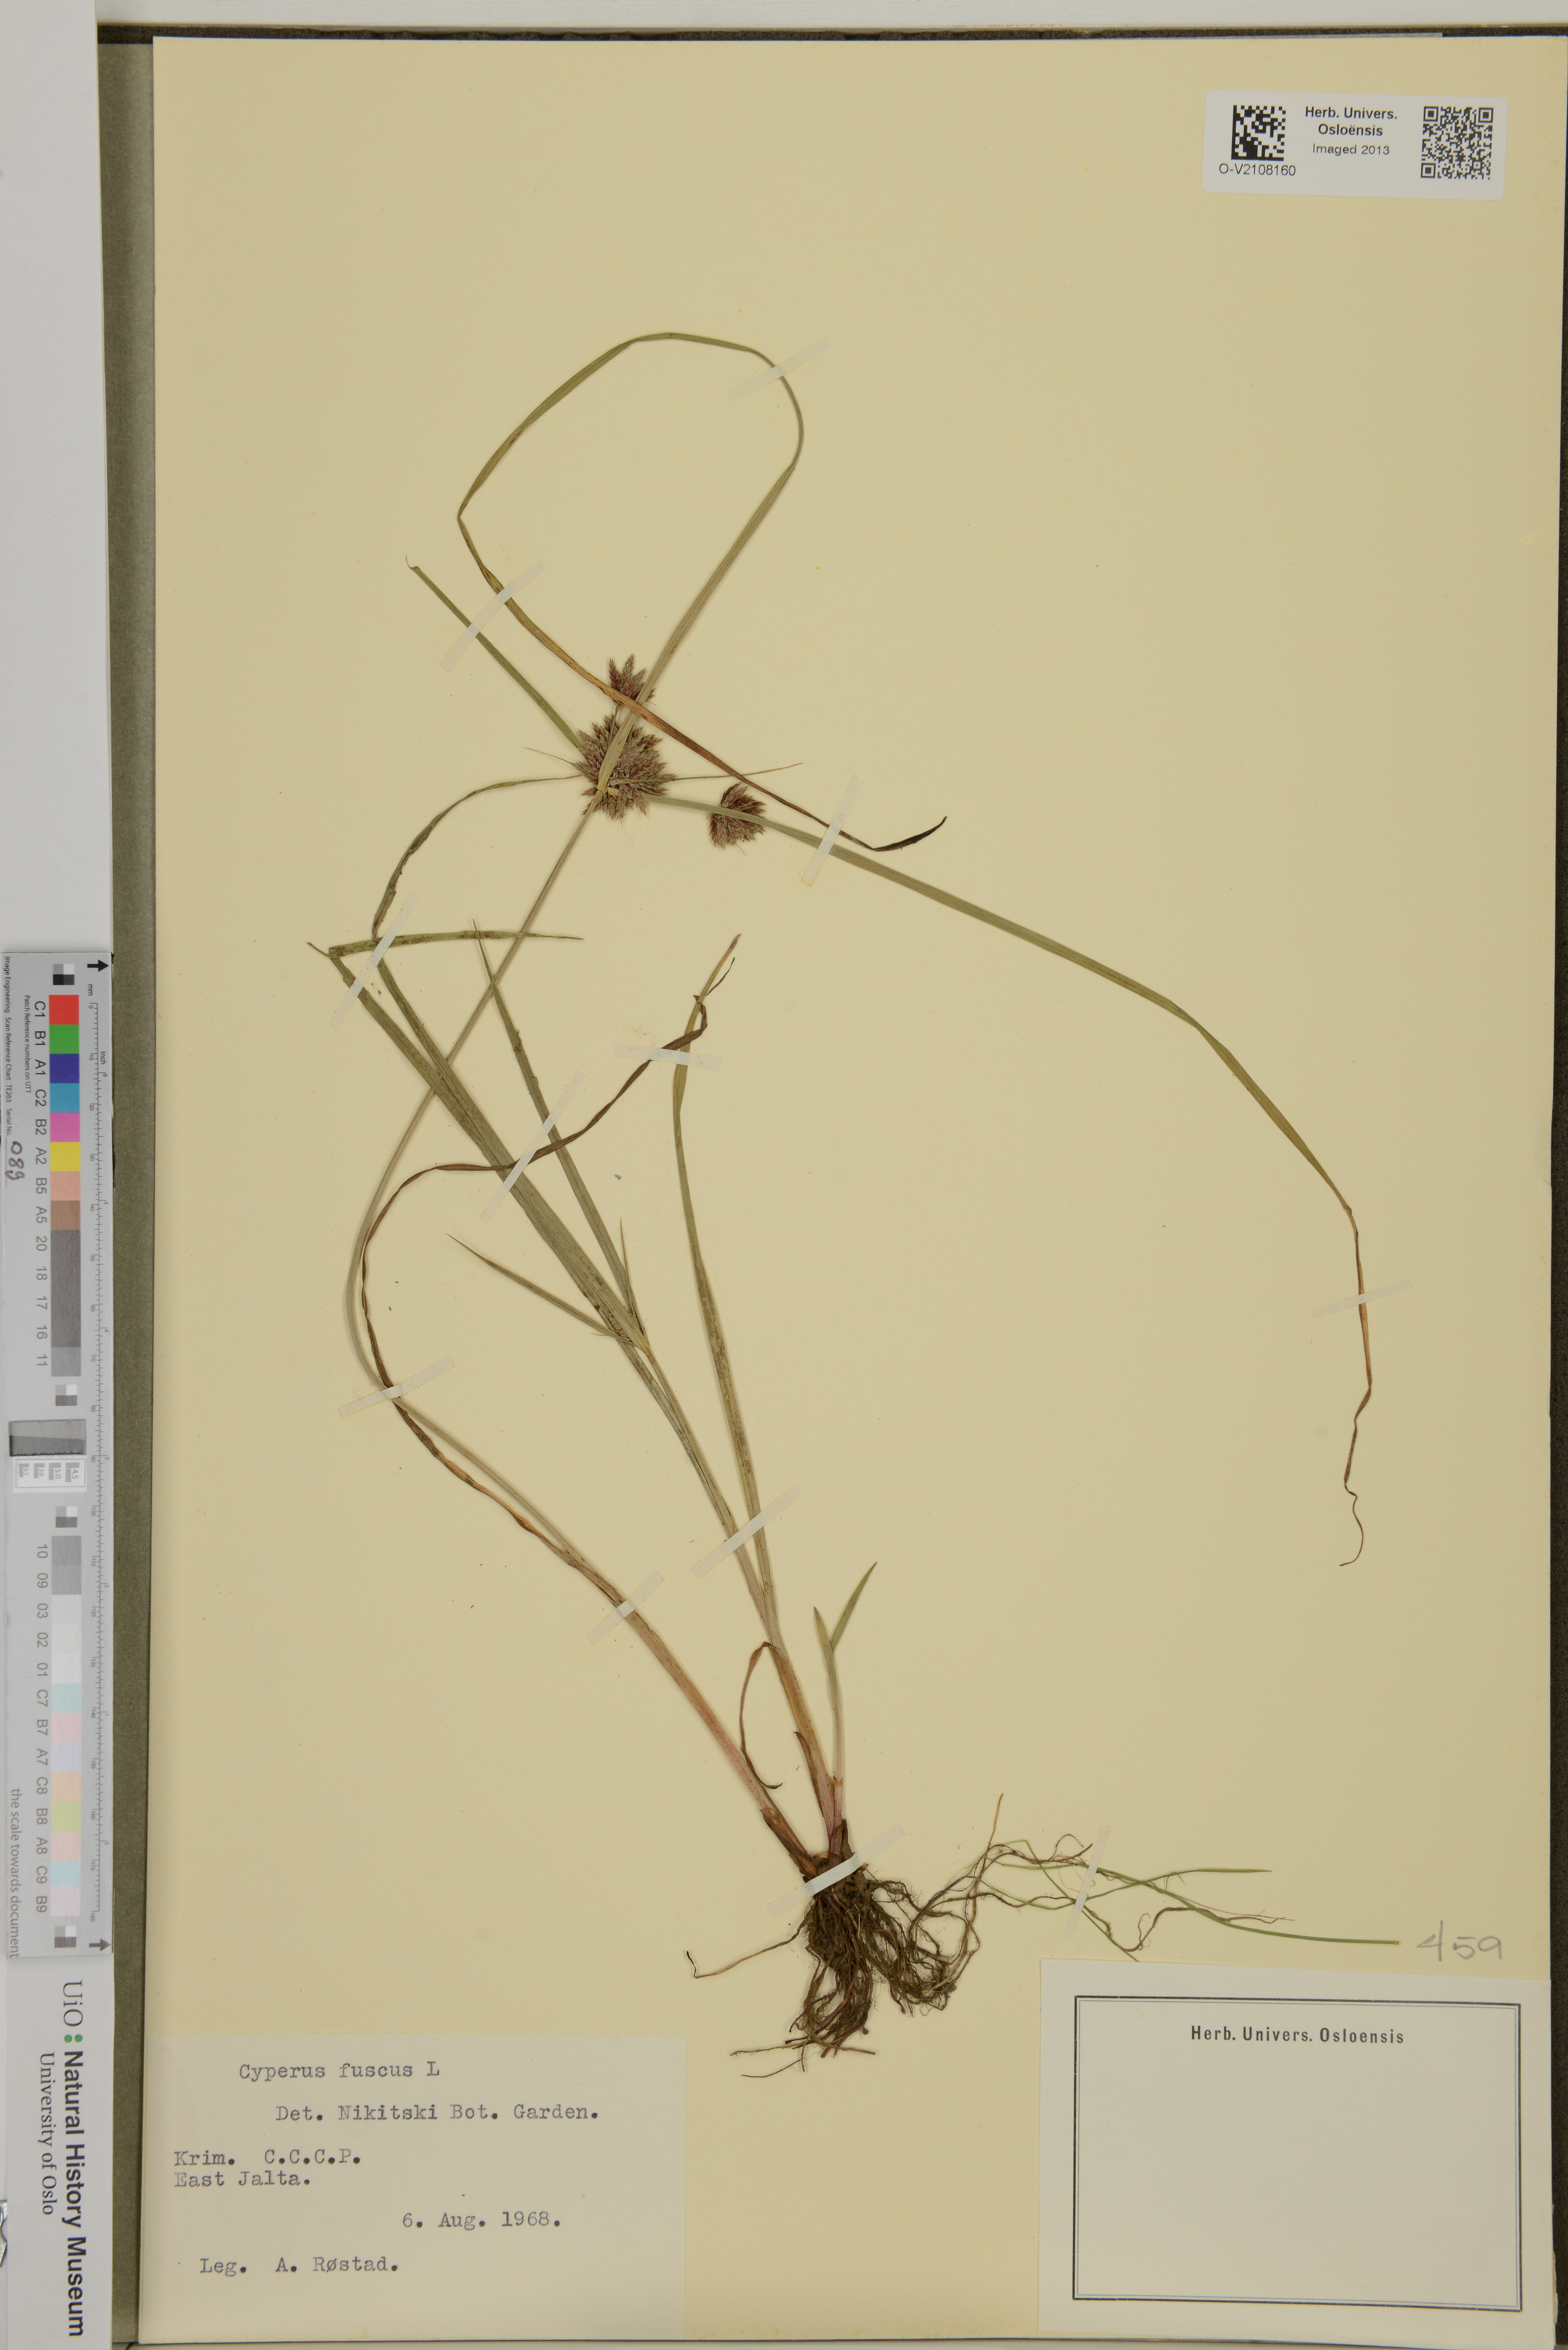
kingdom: Plantae
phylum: Tracheophyta
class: Liliopsida
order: Poales
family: Cyperaceae
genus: Cyperus
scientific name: Cyperus fuscus
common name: Brown galingale
